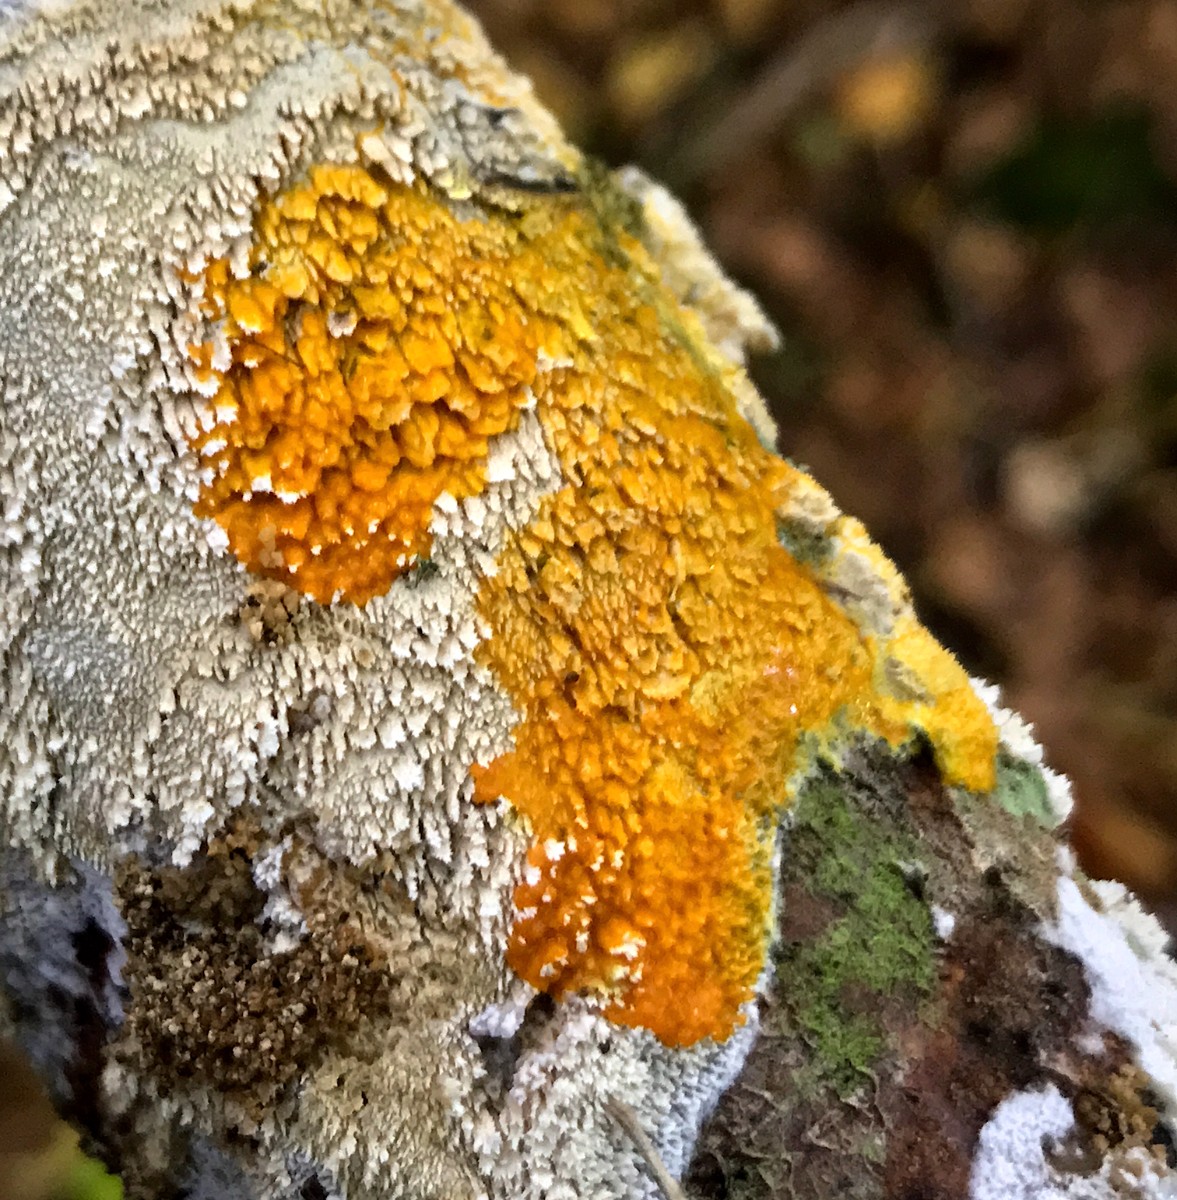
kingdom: Protozoa
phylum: Mycetozoa
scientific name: Mycetozoa
